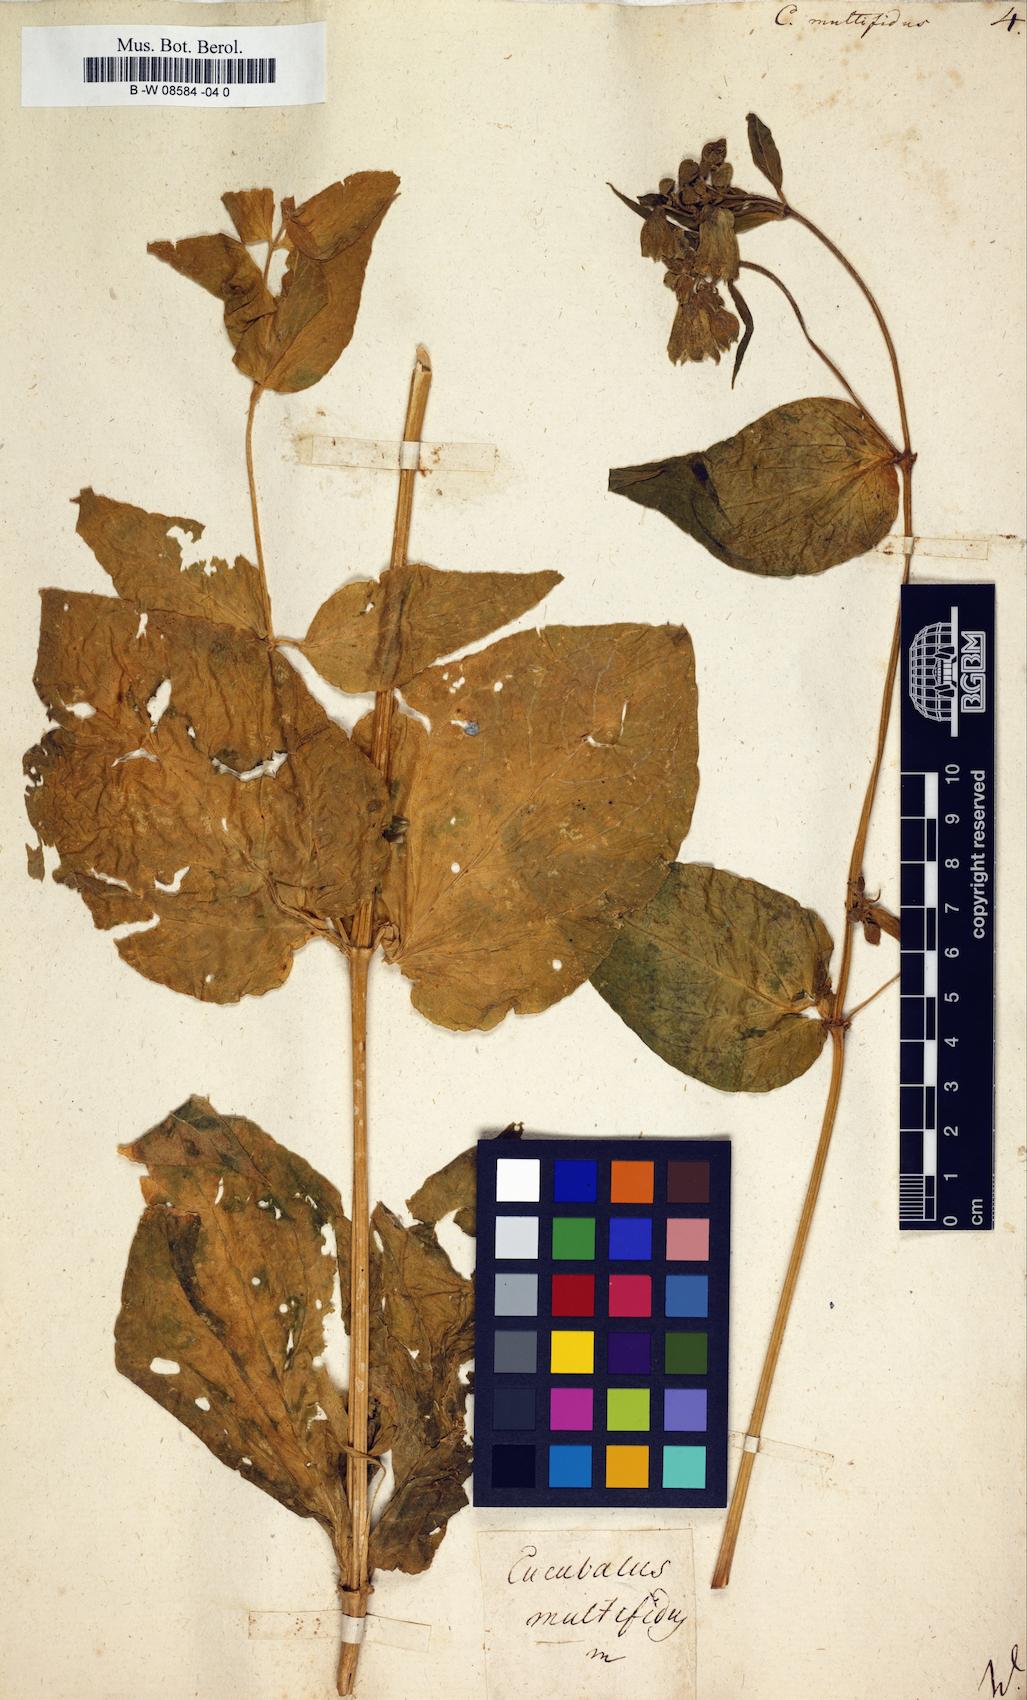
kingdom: Plantae
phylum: Tracheophyta
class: Magnoliopsida
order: Caryophyllales
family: Caryophyllaceae
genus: Silene
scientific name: Silene macrophylla
